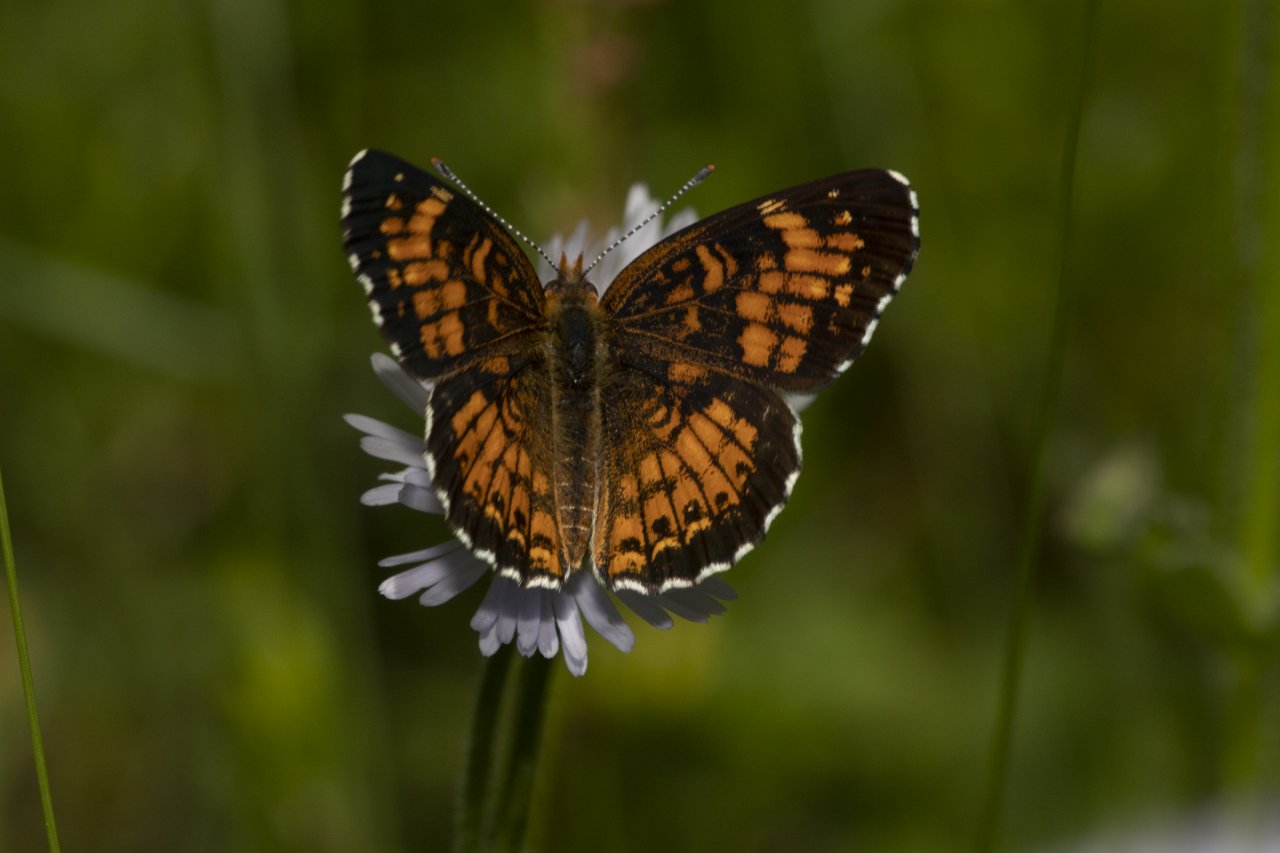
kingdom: Animalia
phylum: Arthropoda
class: Insecta
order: Lepidoptera
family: Nymphalidae
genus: Chlosyne
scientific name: Chlosyne harrisii
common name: Harris's Checkerspot
